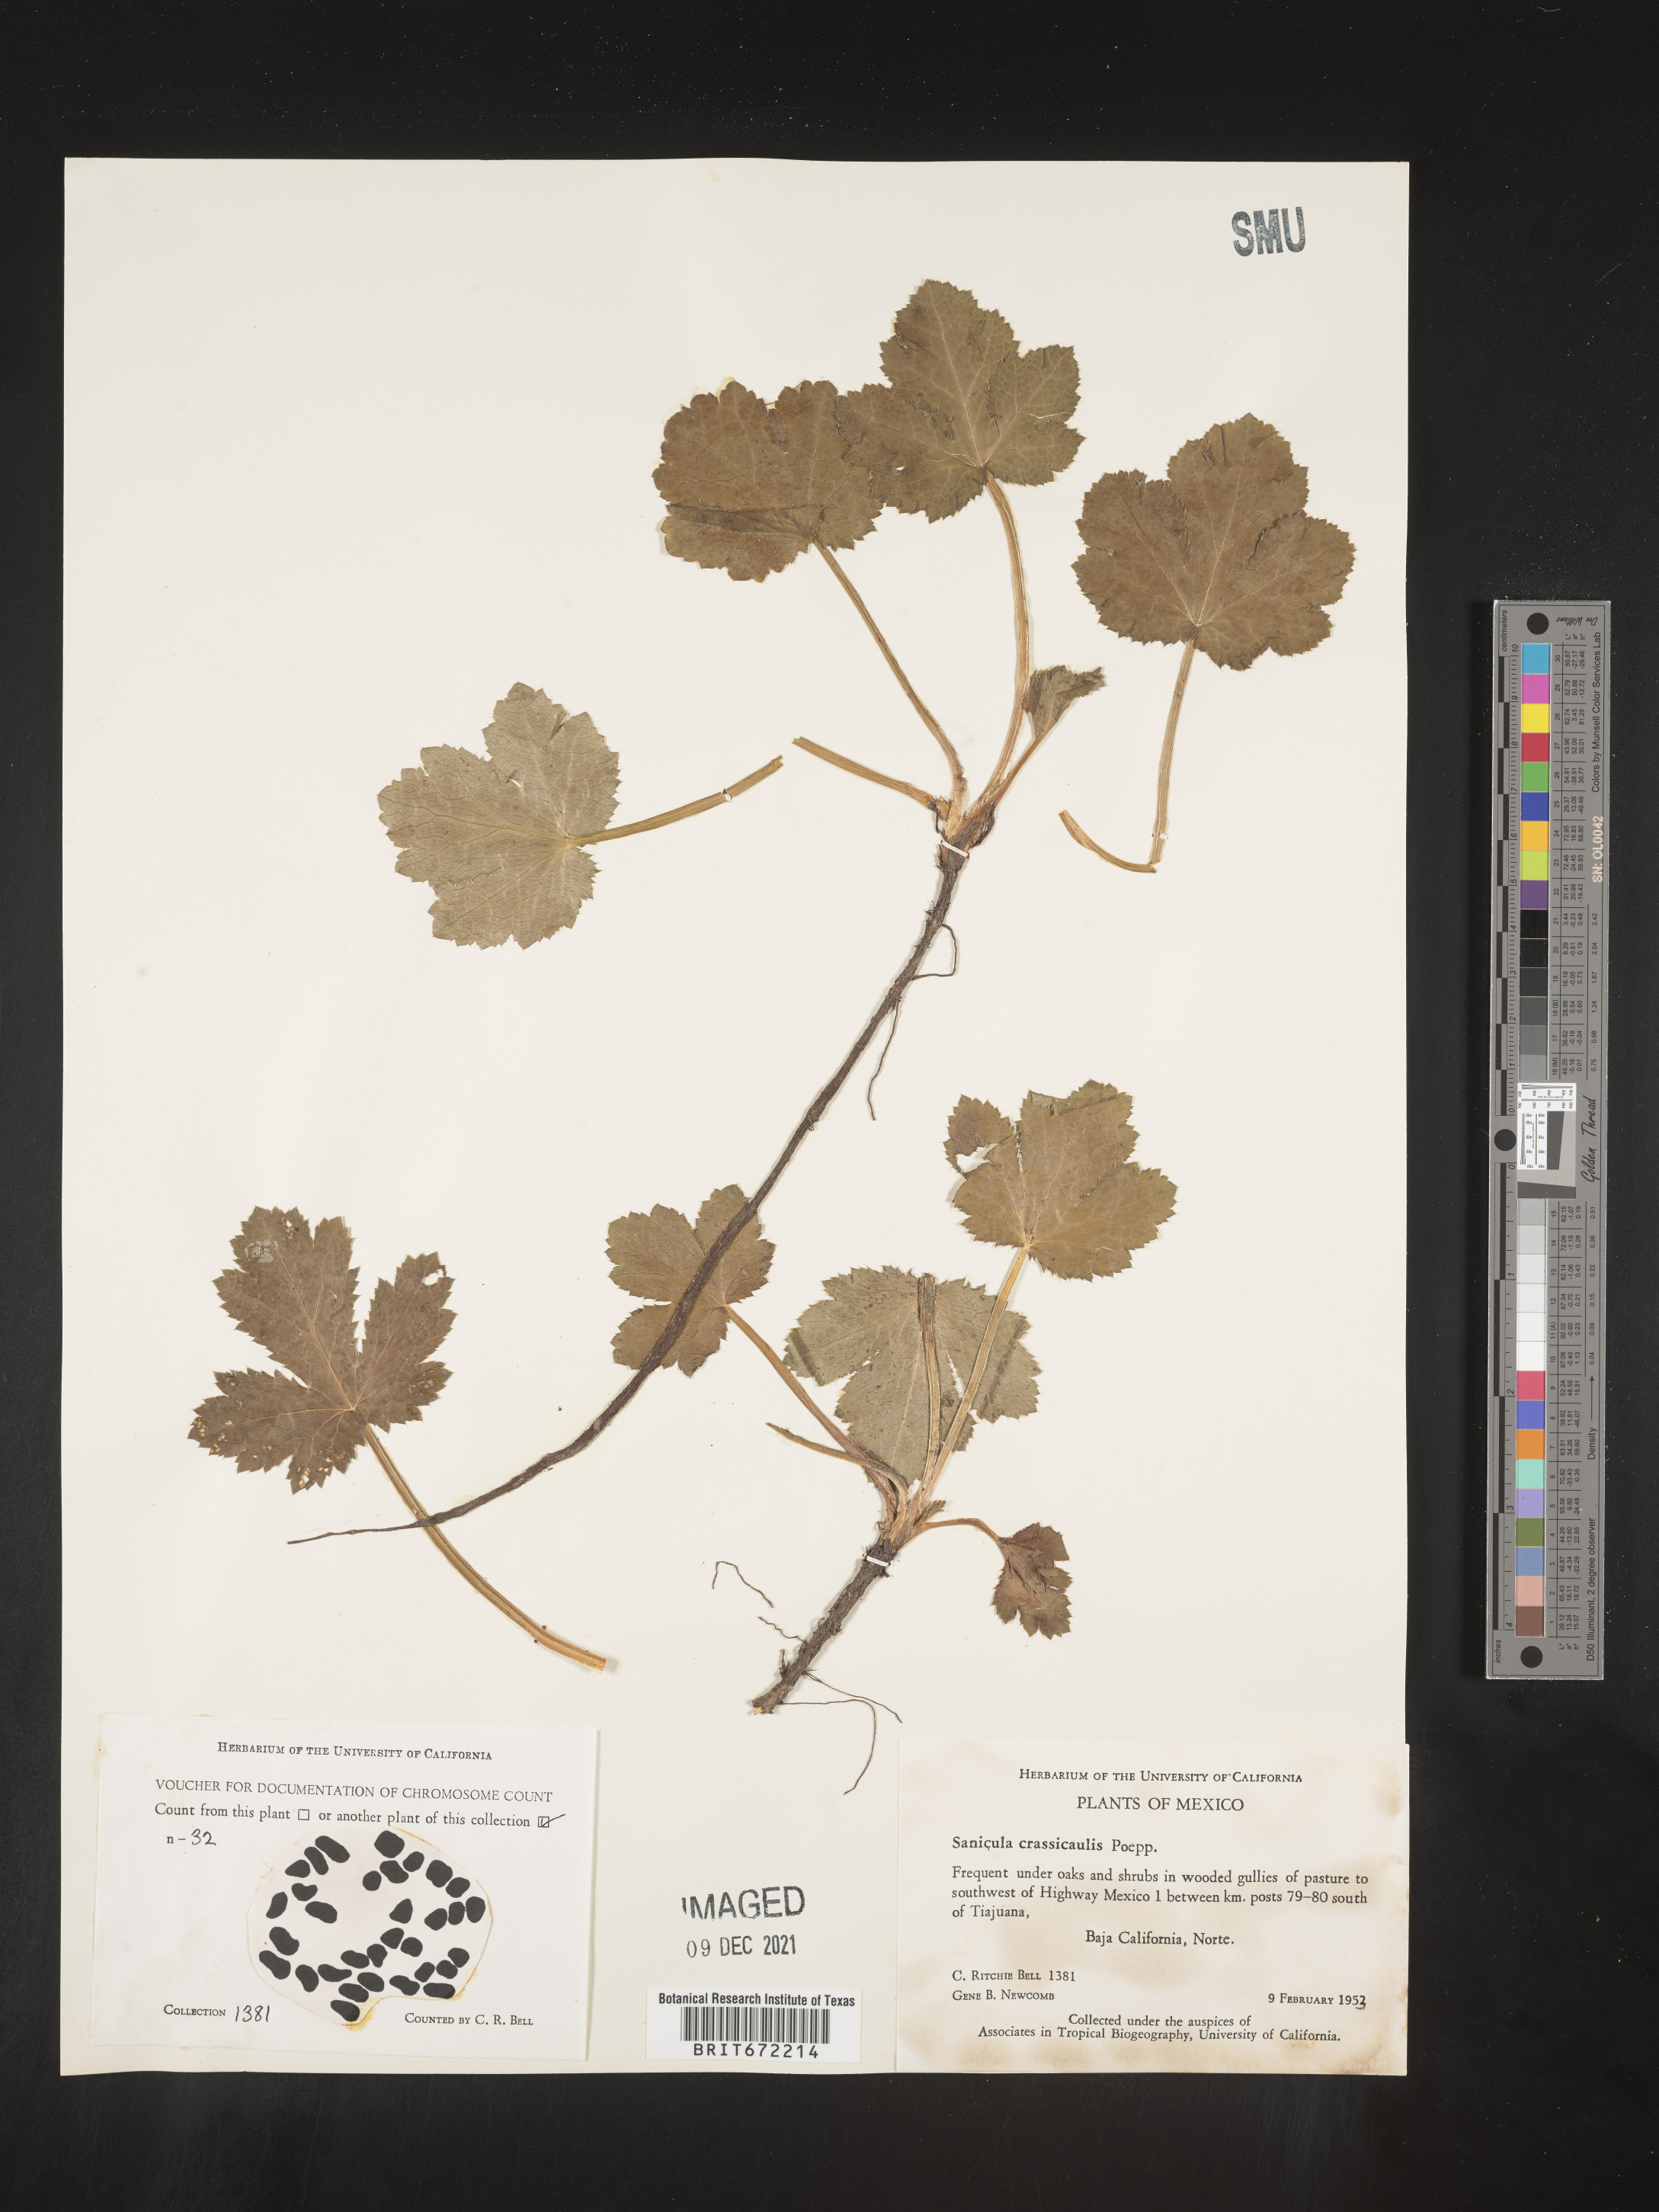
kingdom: Plantae
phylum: Tracheophyta
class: Magnoliopsida
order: Apiales
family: Apiaceae
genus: Sanicula
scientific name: Sanicula
